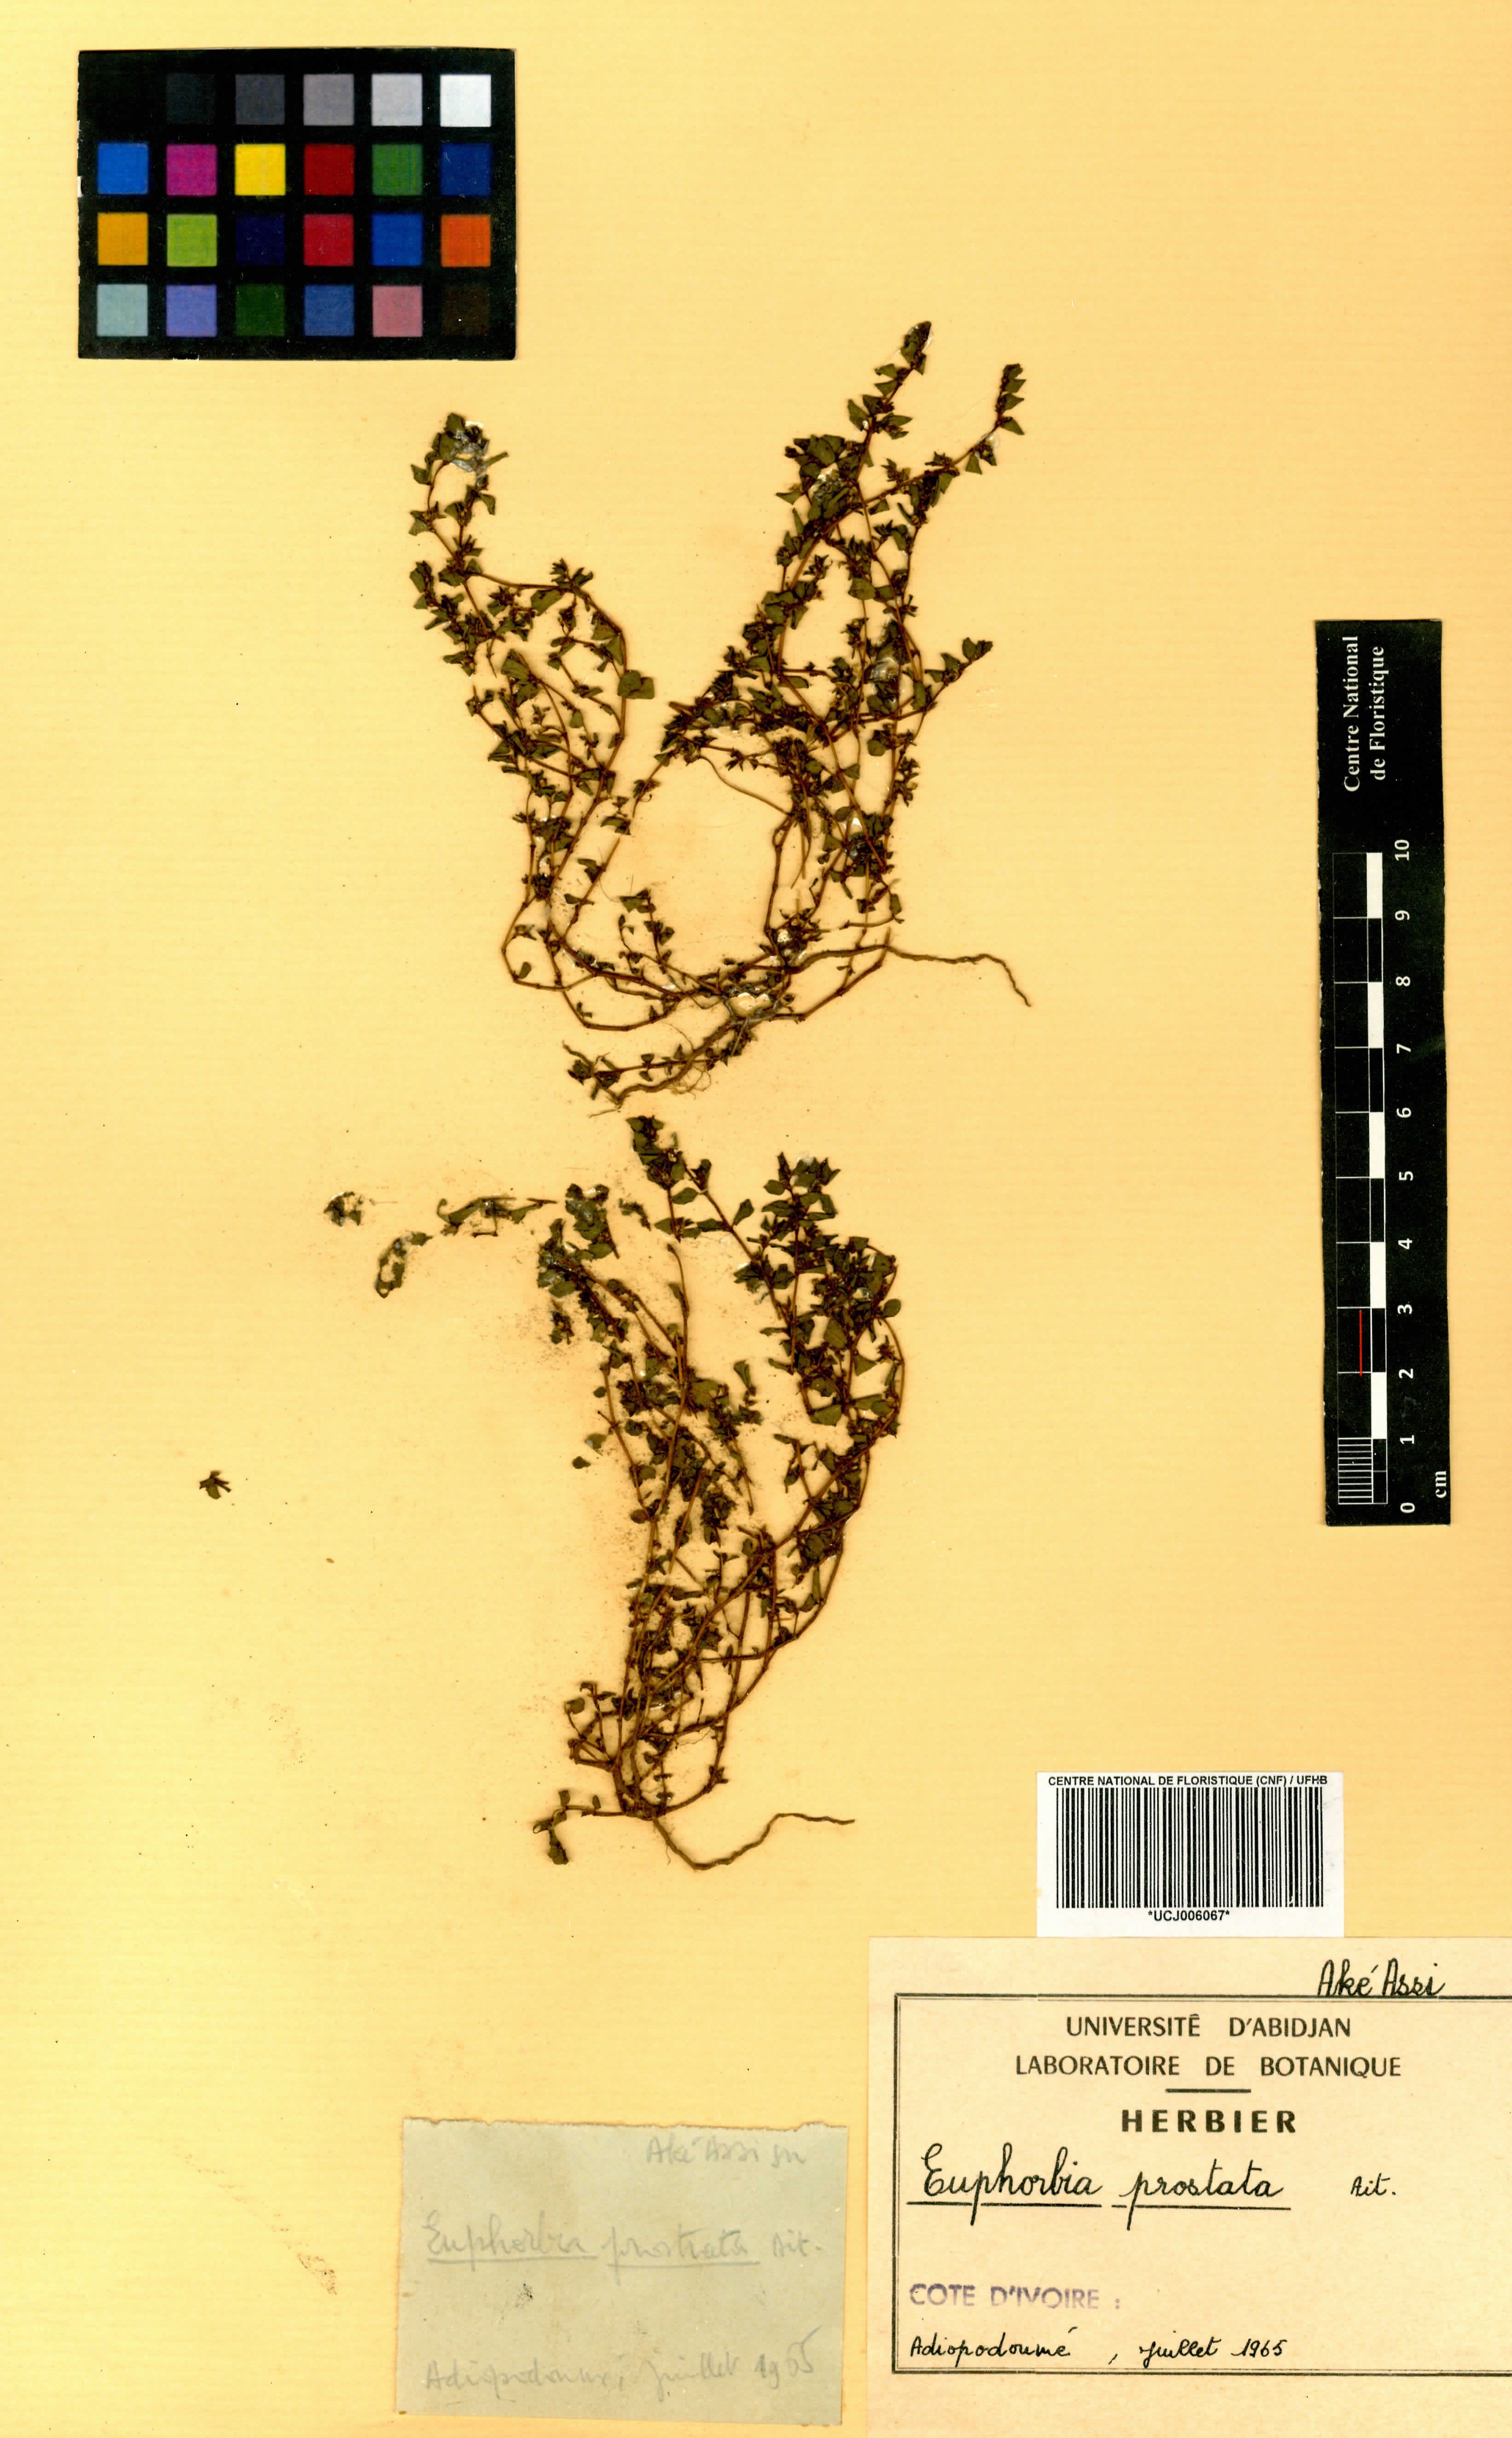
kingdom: Plantae
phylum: Tracheophyta
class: Magnoliopsida
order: Malpighiales
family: Euphorbiaceae
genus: Euphorbia
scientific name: Euphorbia prostrata
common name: Prostrate sandmat
